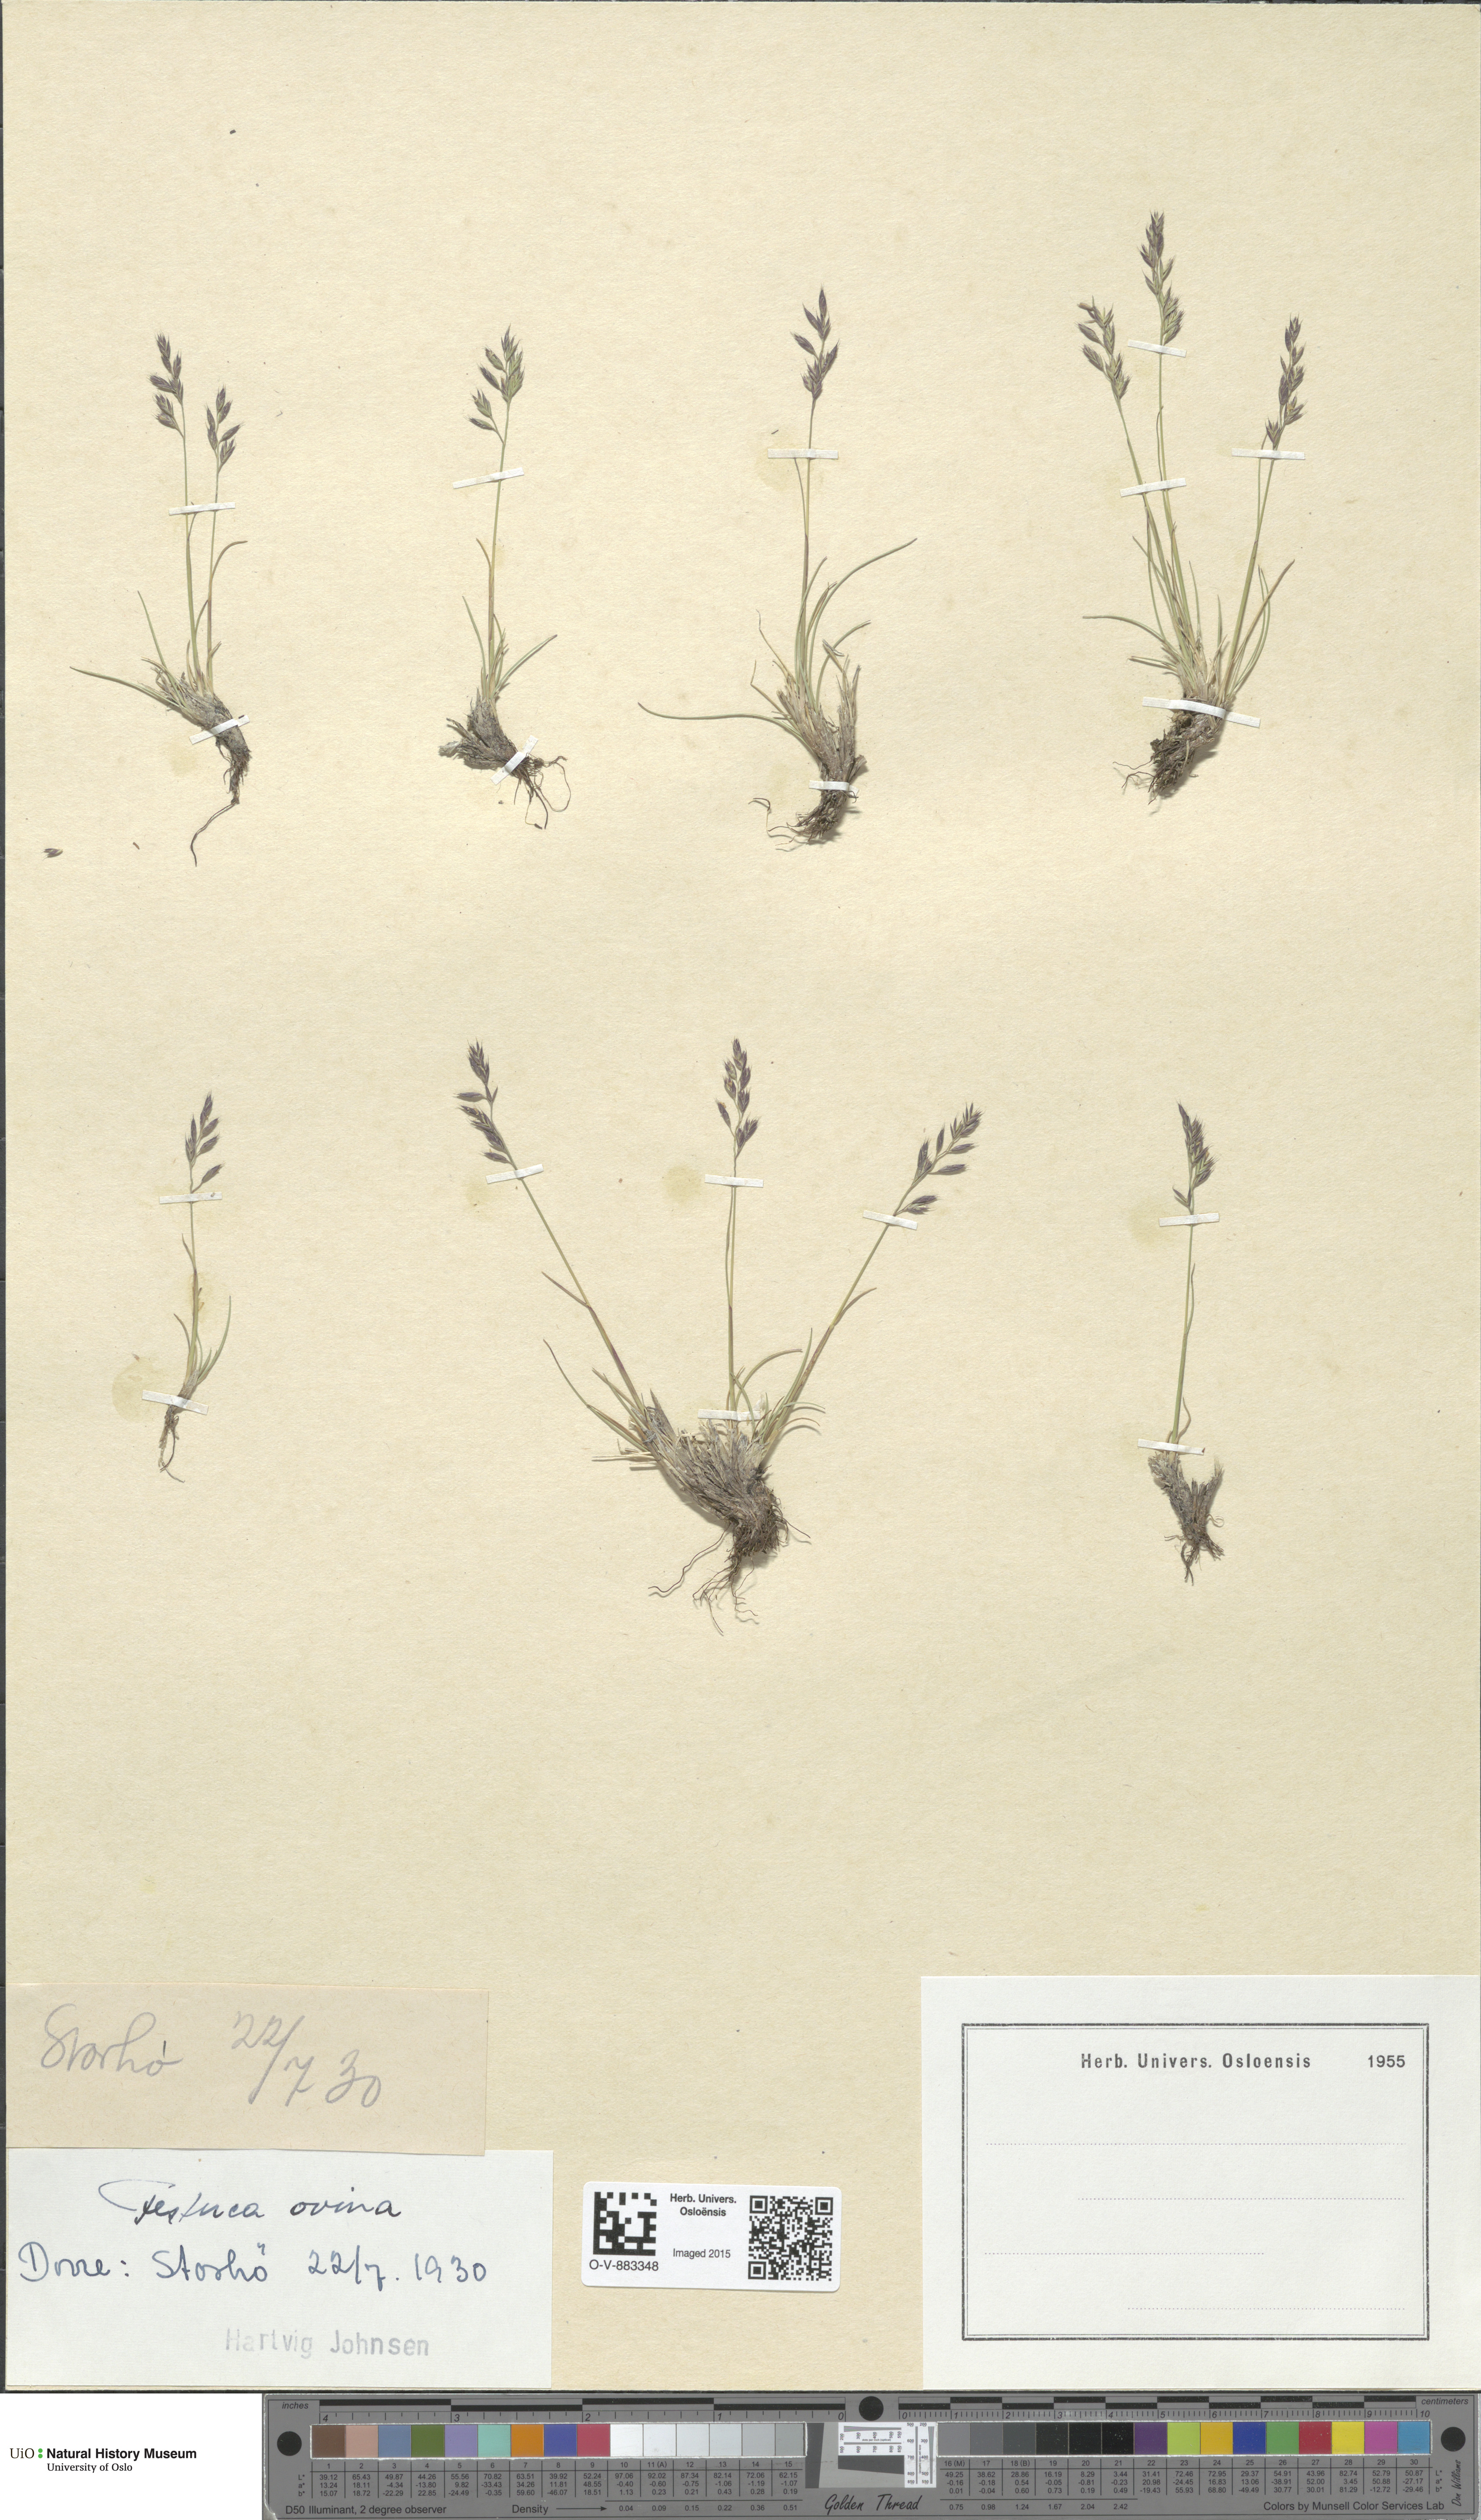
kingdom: Plantae
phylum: Tracheophyta
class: Liliopsida
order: Poales
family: Poaceae
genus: Festuca
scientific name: Festuca ovina
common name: Sheep fescue
